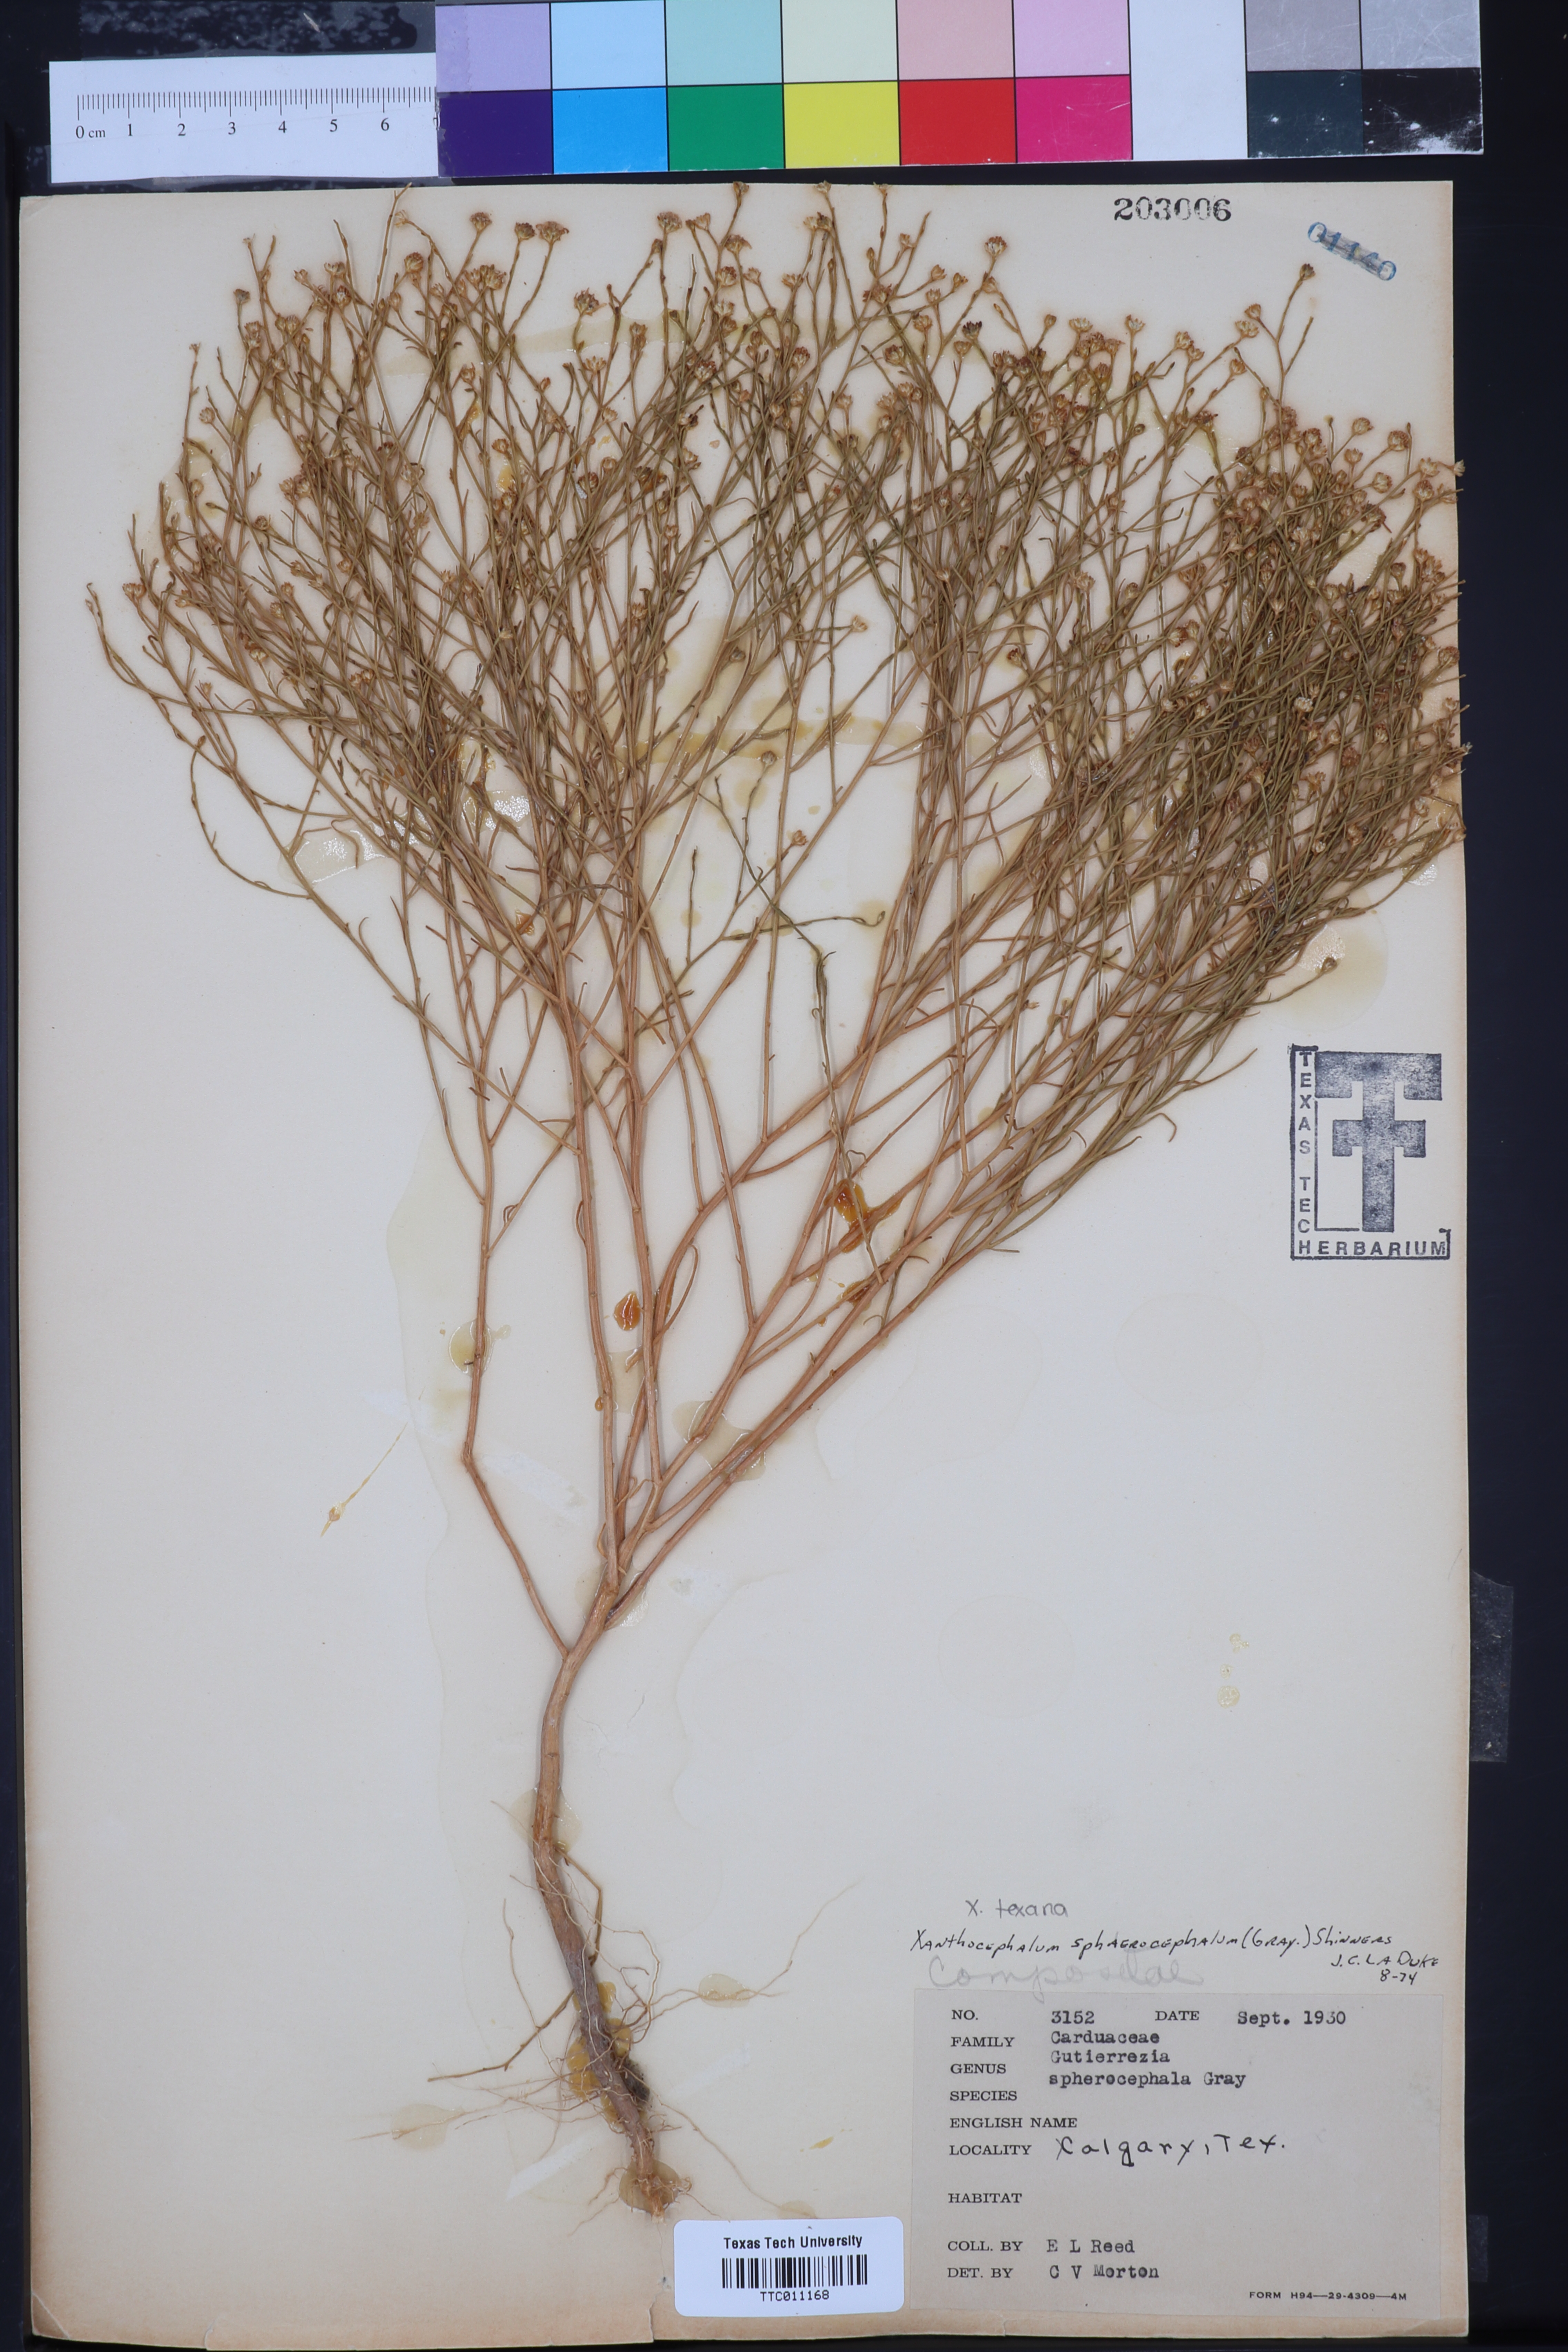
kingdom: Plantae
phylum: Tracheophyta
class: Magnoliopsida
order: Asterales
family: Asteraceae
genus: Gutierrezia
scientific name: Gutierrezia texana
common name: Texas snakeweed
